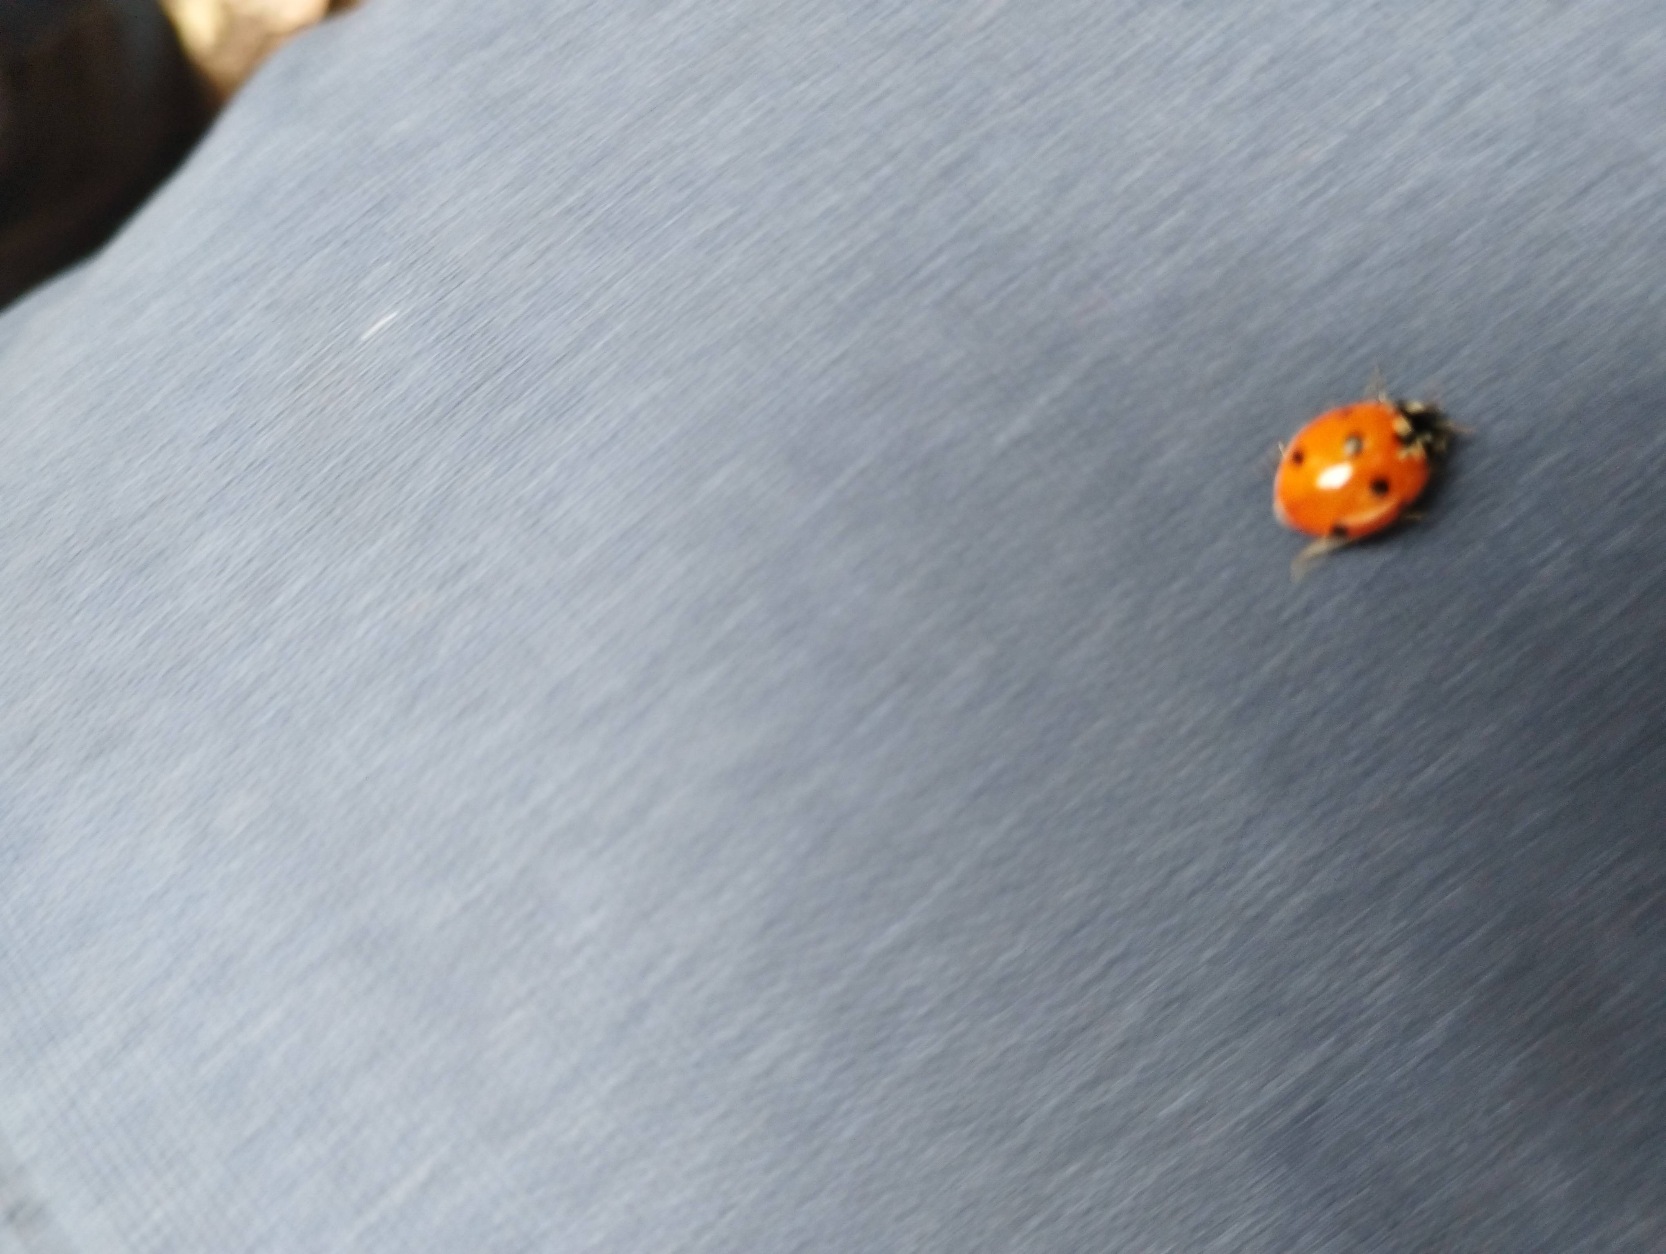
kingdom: Animalia
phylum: Arthropoda
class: Insecta
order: Coleoptera
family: Coccinellidae
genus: Coccinella
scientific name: Coccinella septempunctata
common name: Syvplettet mariehøne
